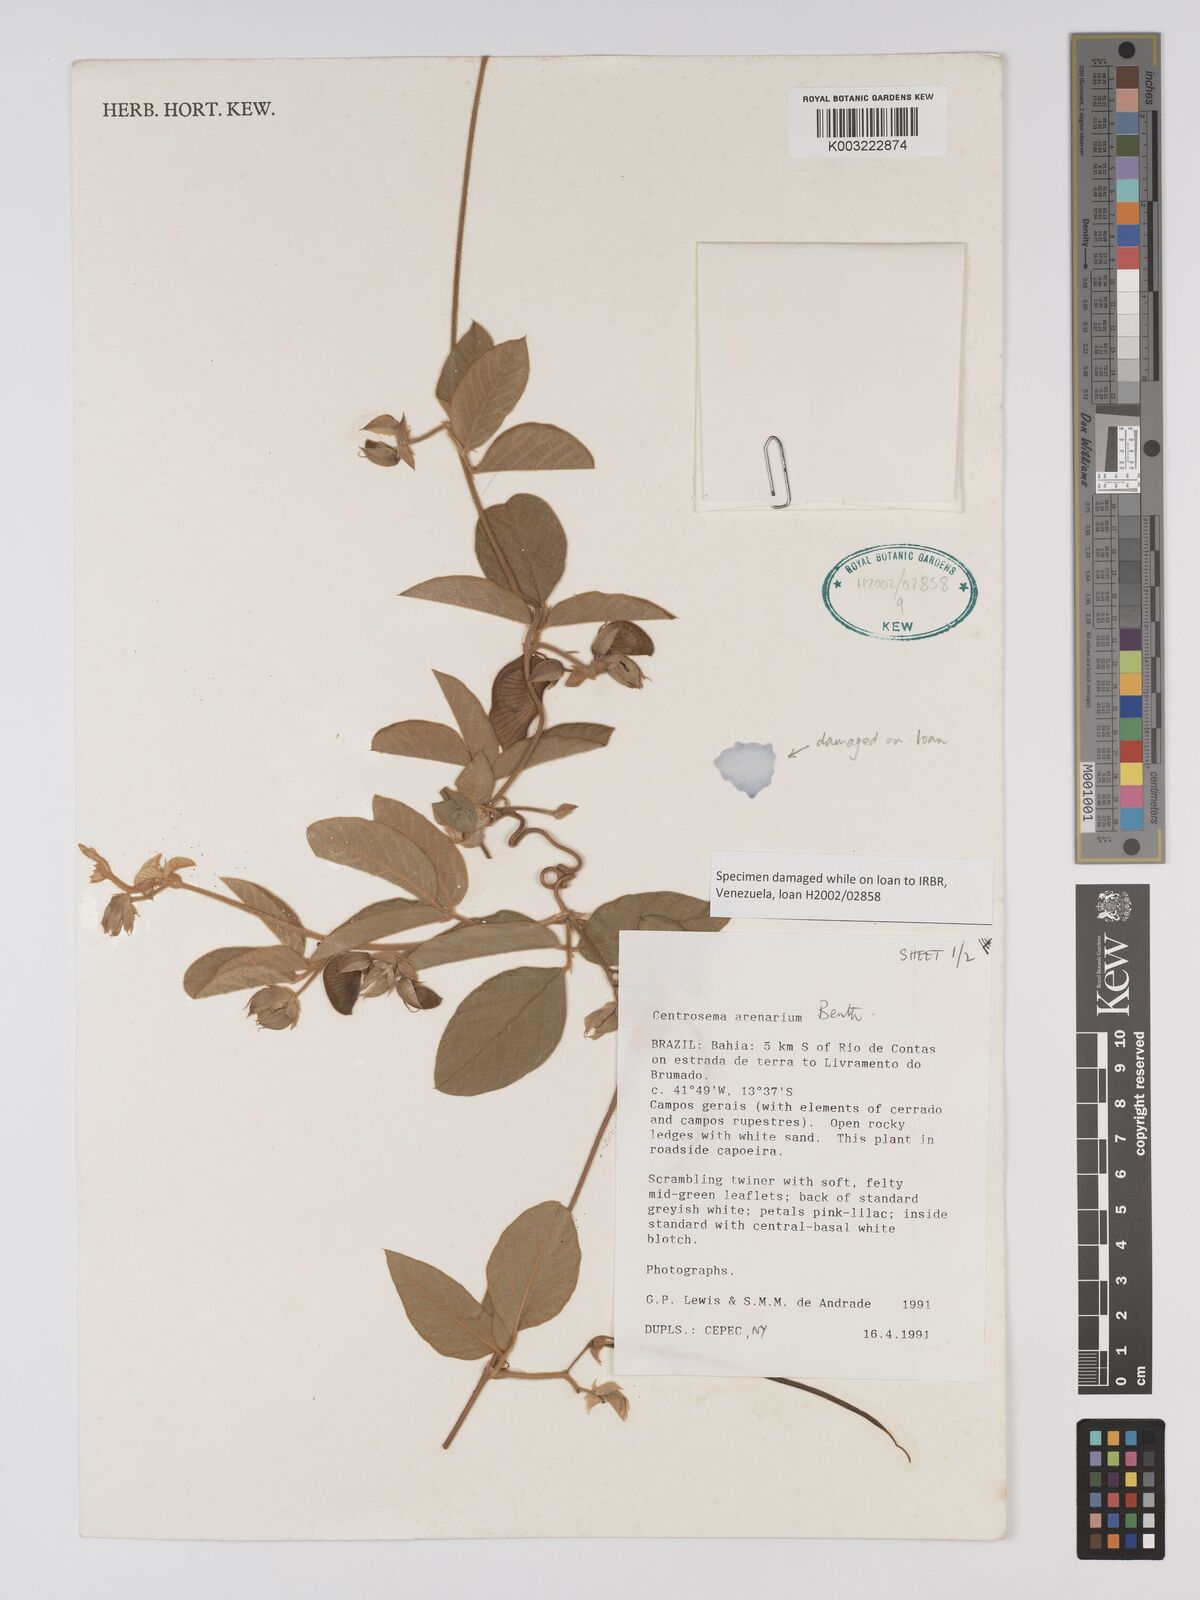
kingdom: Plantae
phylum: Tracheophyta
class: Magnoliopsida
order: Fabales
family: Fabaceae
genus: Centrosema
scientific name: Centrosema arenarium
